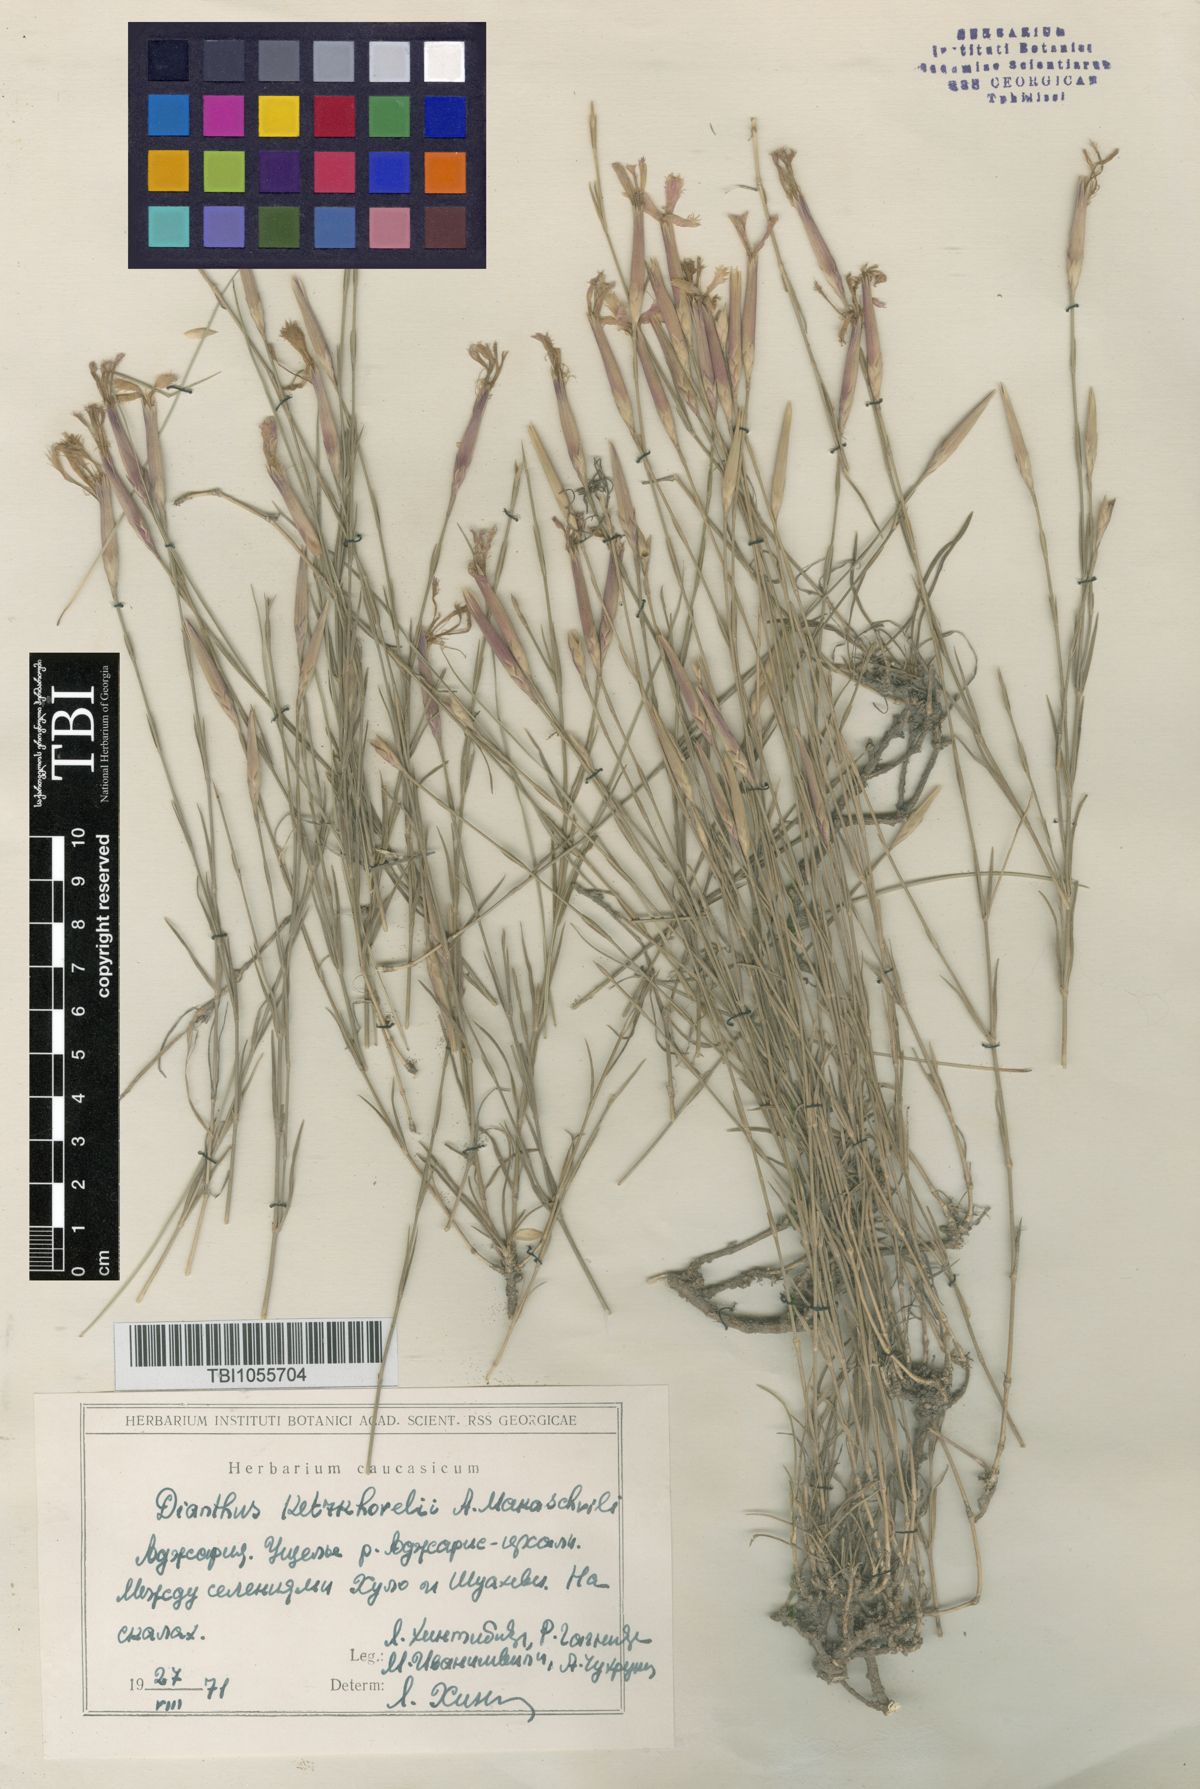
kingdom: Plantae
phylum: Tracheophyta
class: Magnoliopsida
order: Caryophyllales
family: Caryophyllaceae
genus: Dianthus
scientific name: Dianthus orientalis
